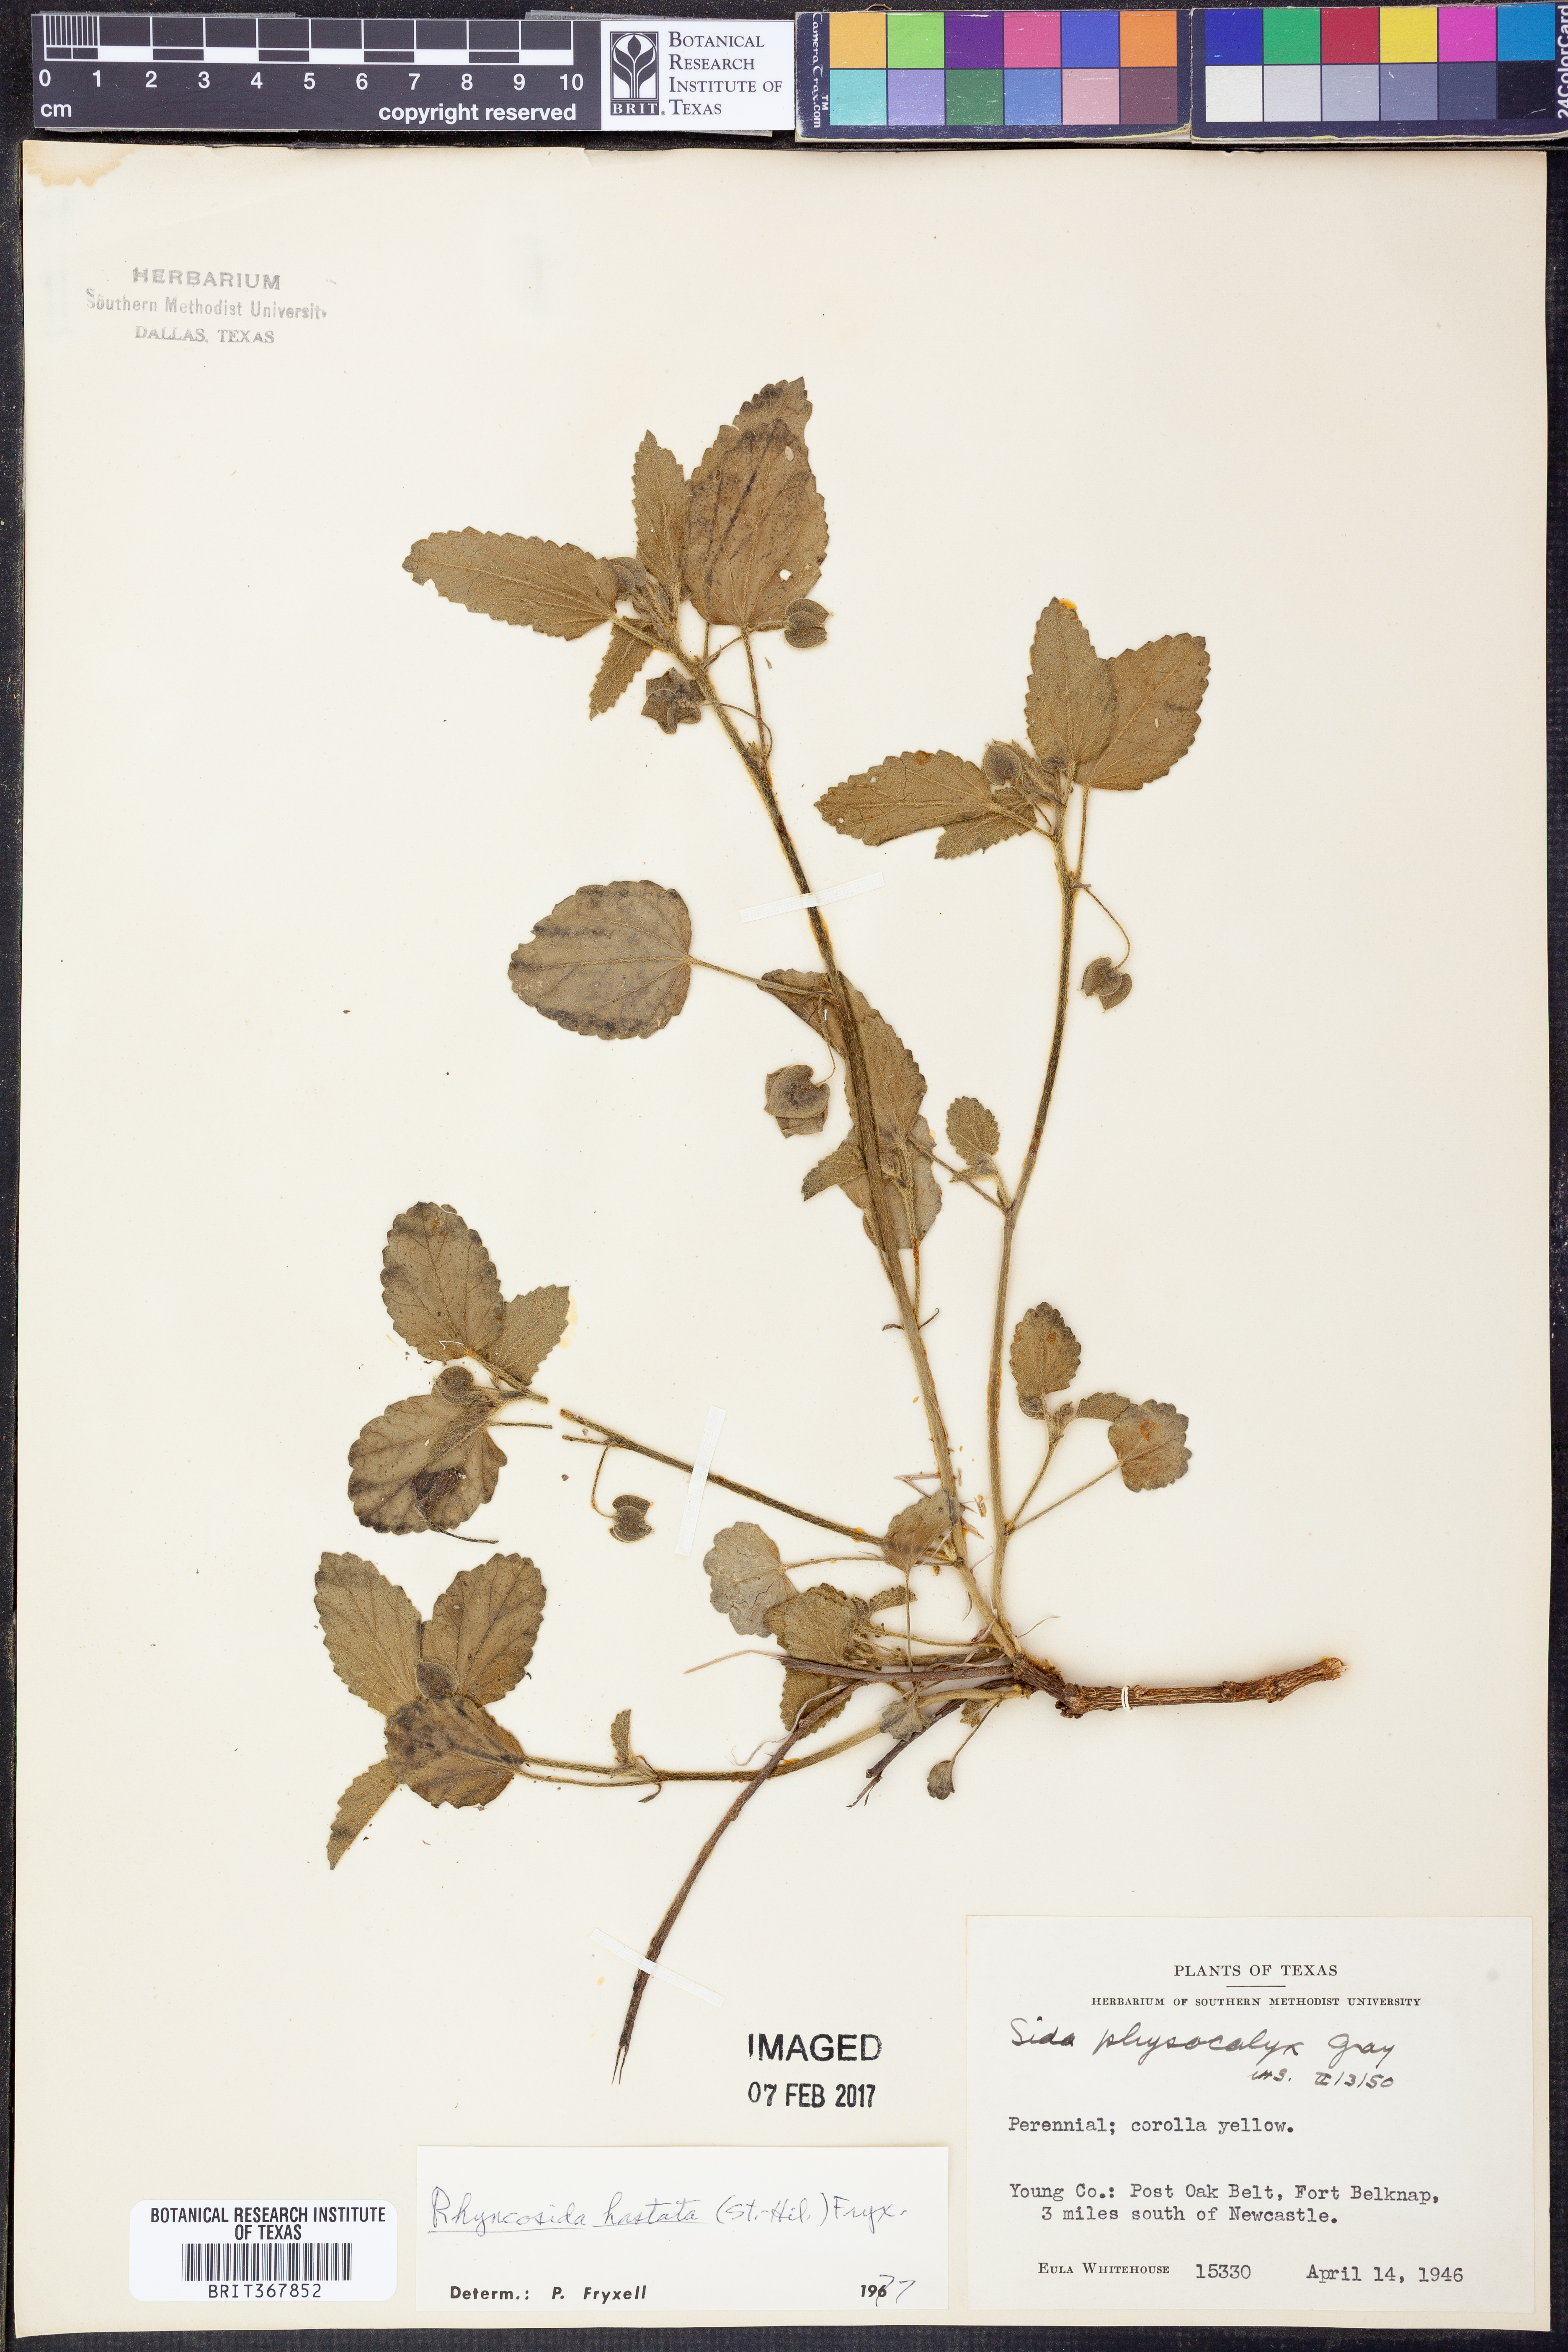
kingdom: Plantae
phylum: Tracheophyta
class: Magnoliopsida
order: Malvales
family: Malvaceae
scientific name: Malvaceae
